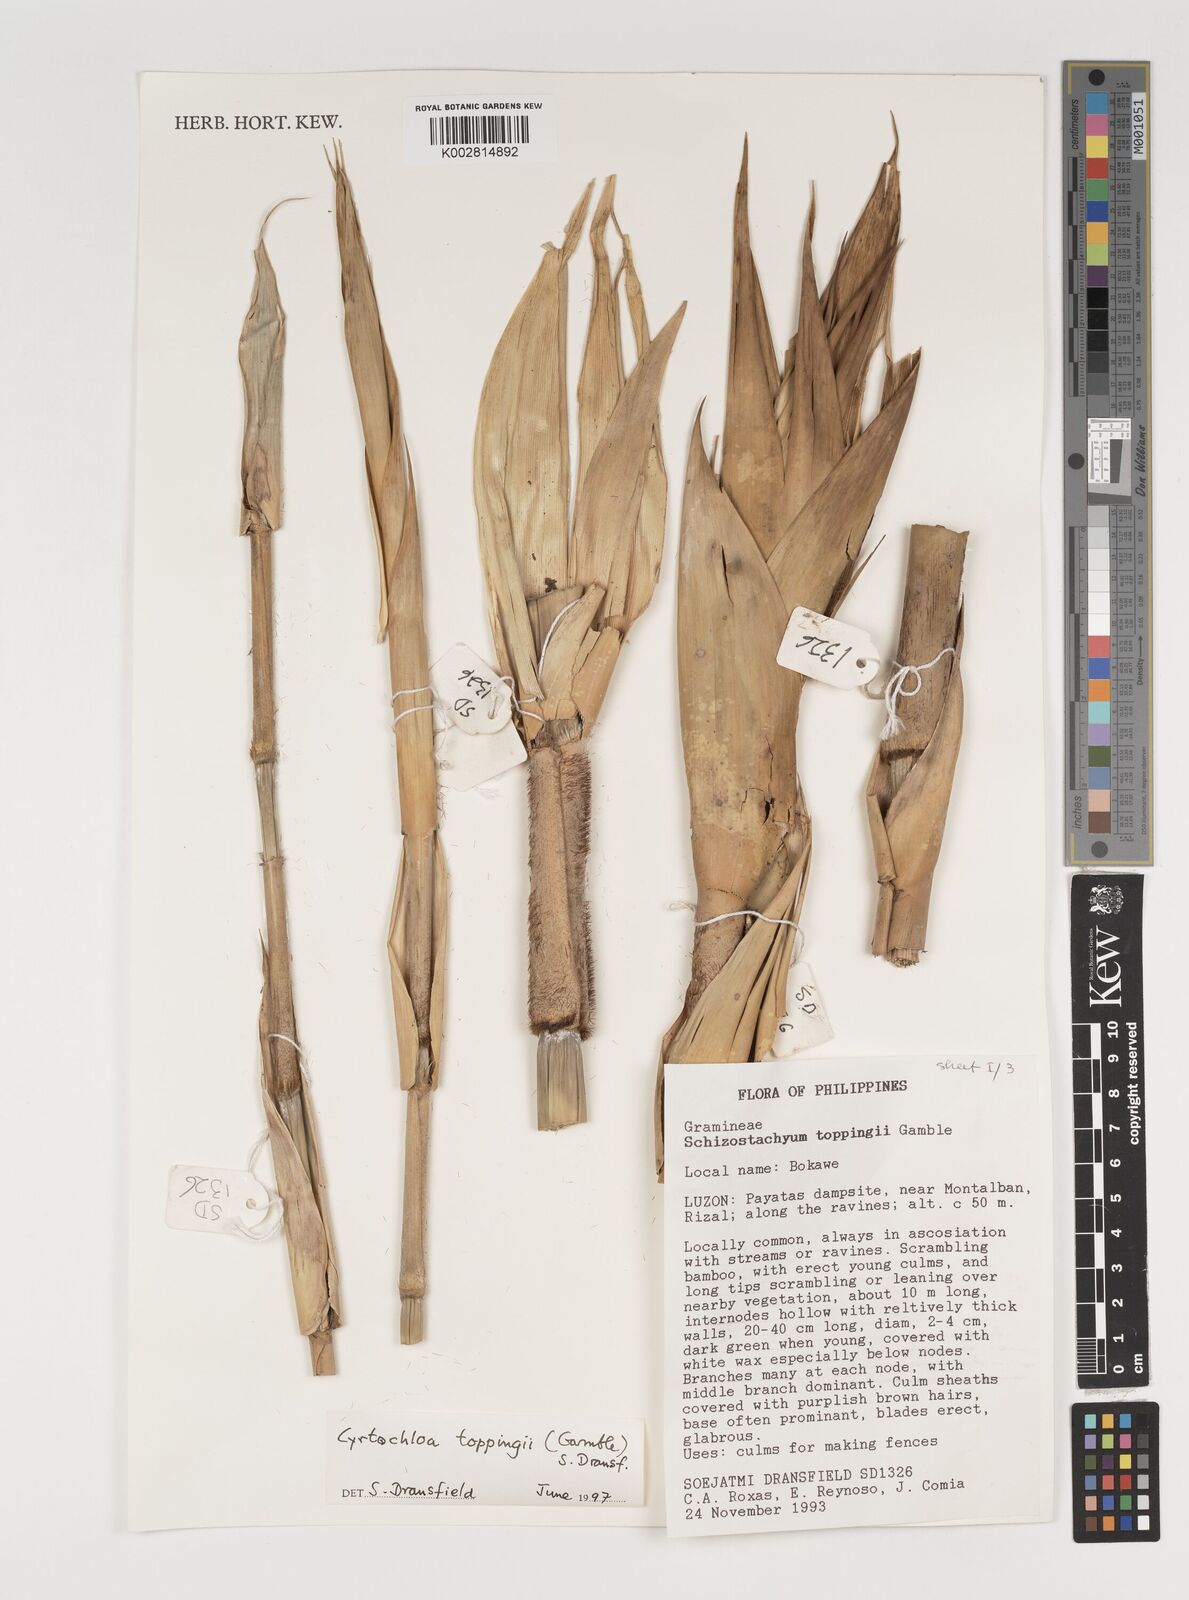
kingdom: Plantae
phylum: Tracheophyta
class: Liliopsida
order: Poales
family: Poaceae
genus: Cyrtochloa
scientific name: Cyrtochloa
